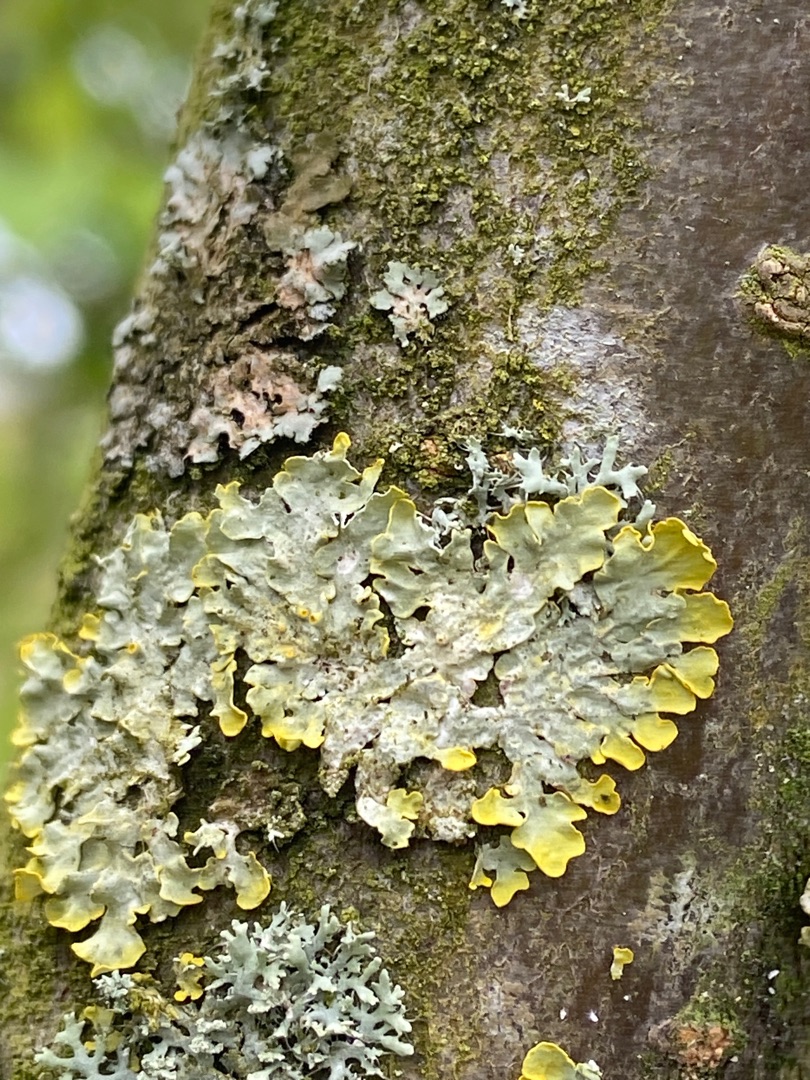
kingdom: Fungi
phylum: Ascomycota
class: Lecanoromycetes
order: Teloschistales
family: Teloschistaceae
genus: Xanthoria
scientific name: Xanthoria parietina
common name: Almindelig væggelav
